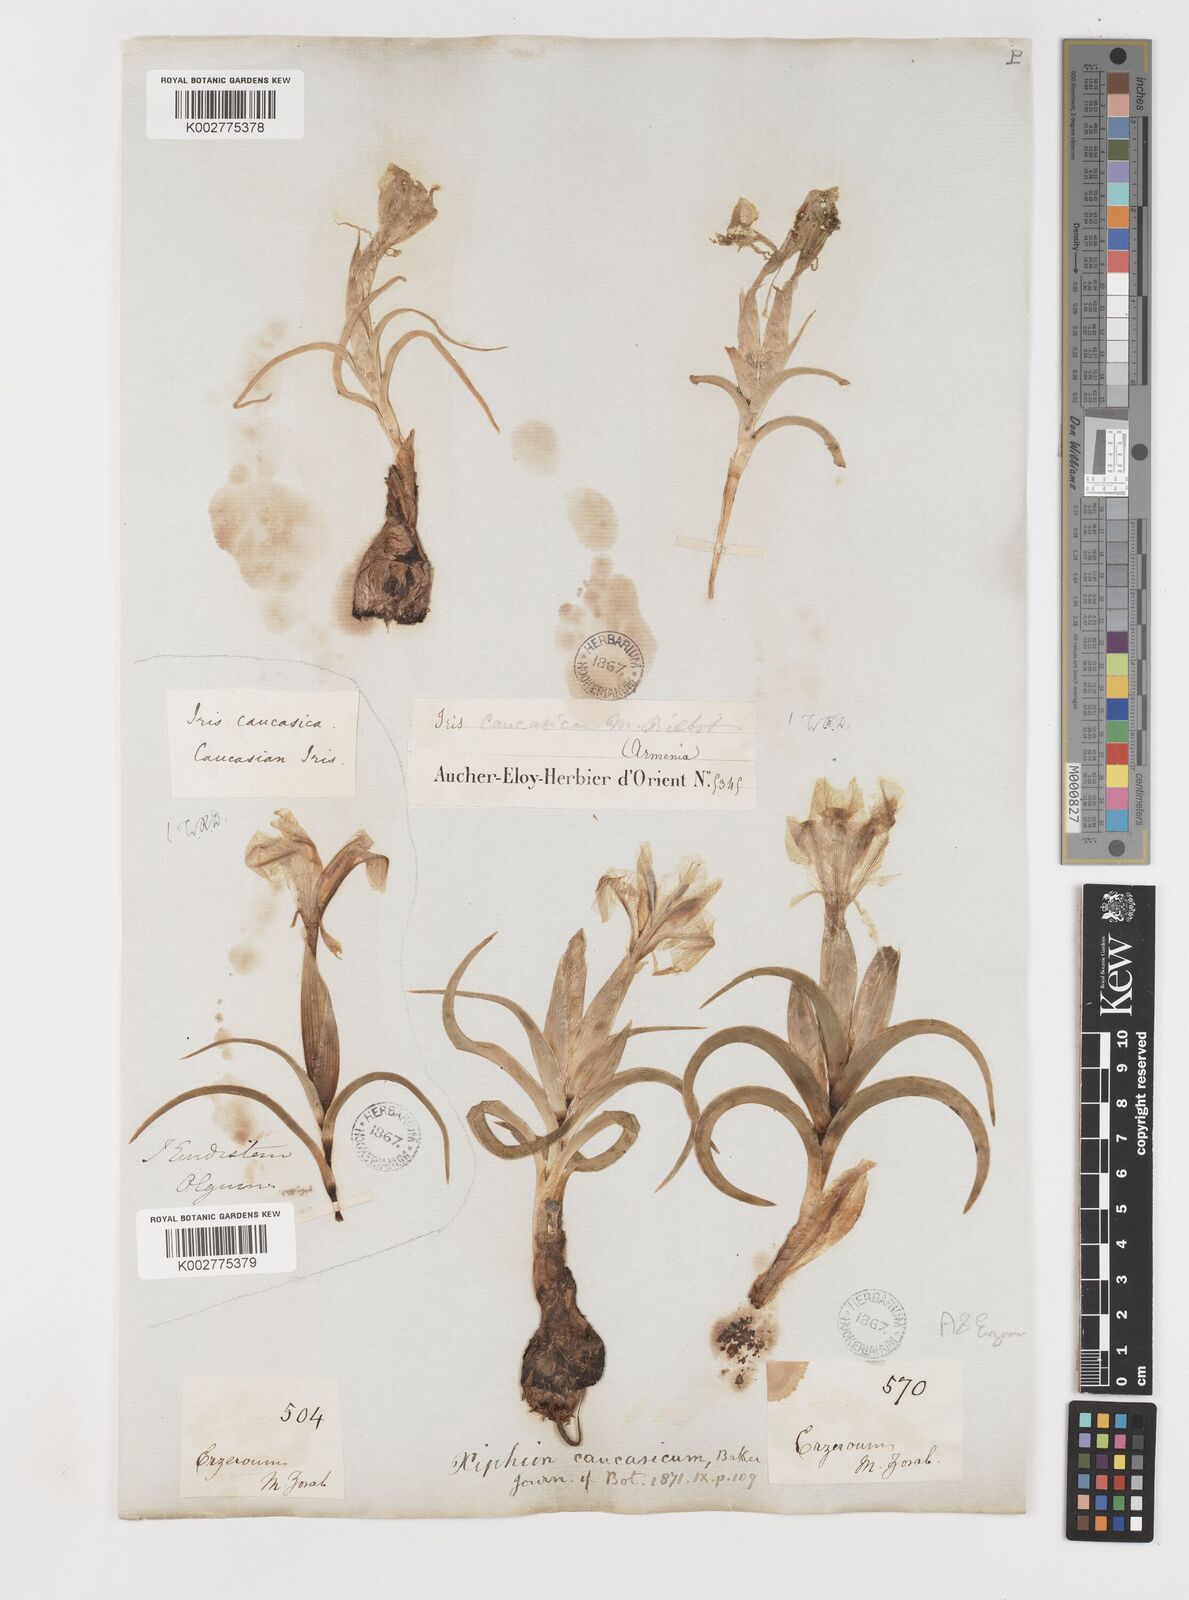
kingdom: Plantae
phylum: Tracheophyta
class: Liliopsida
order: Asparagales
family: Iridaceae
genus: Iris
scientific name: Iris caucasica
